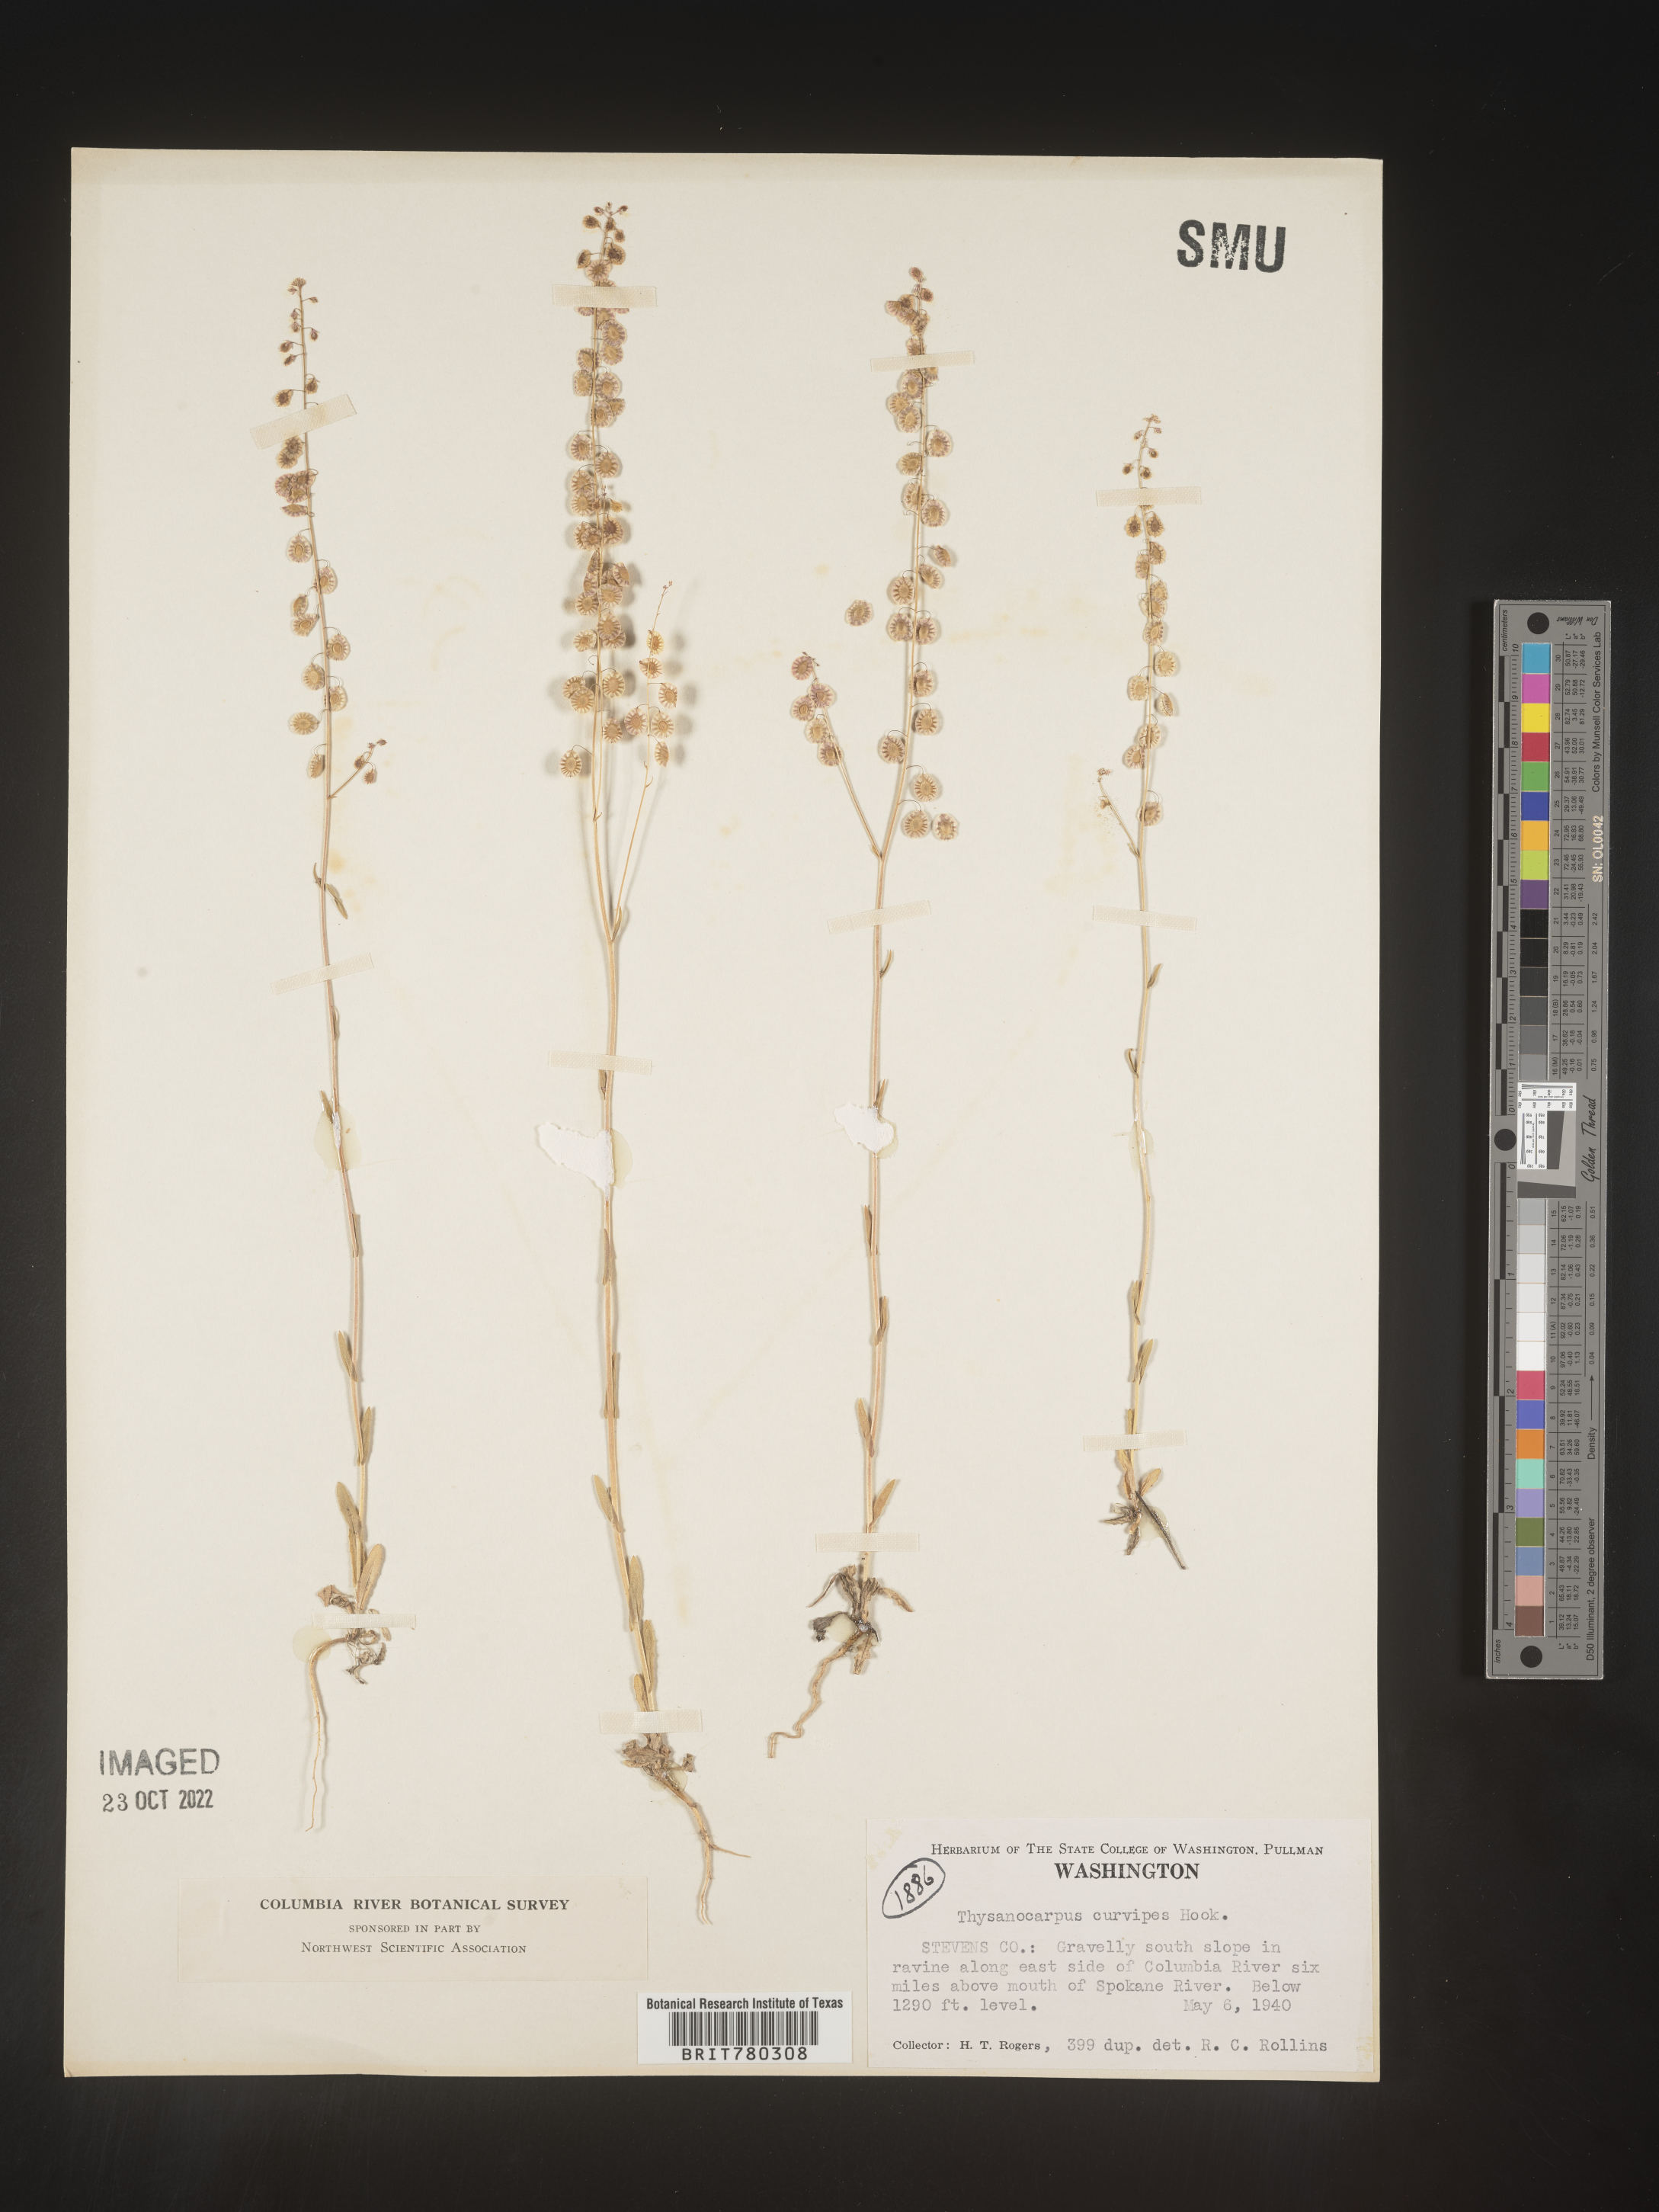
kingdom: Plantae
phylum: Tracheophyta
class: Magnoliopsida
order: Brassicales
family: Brassicaceae
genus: Thysanocarpus
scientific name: Thysanocarpus
